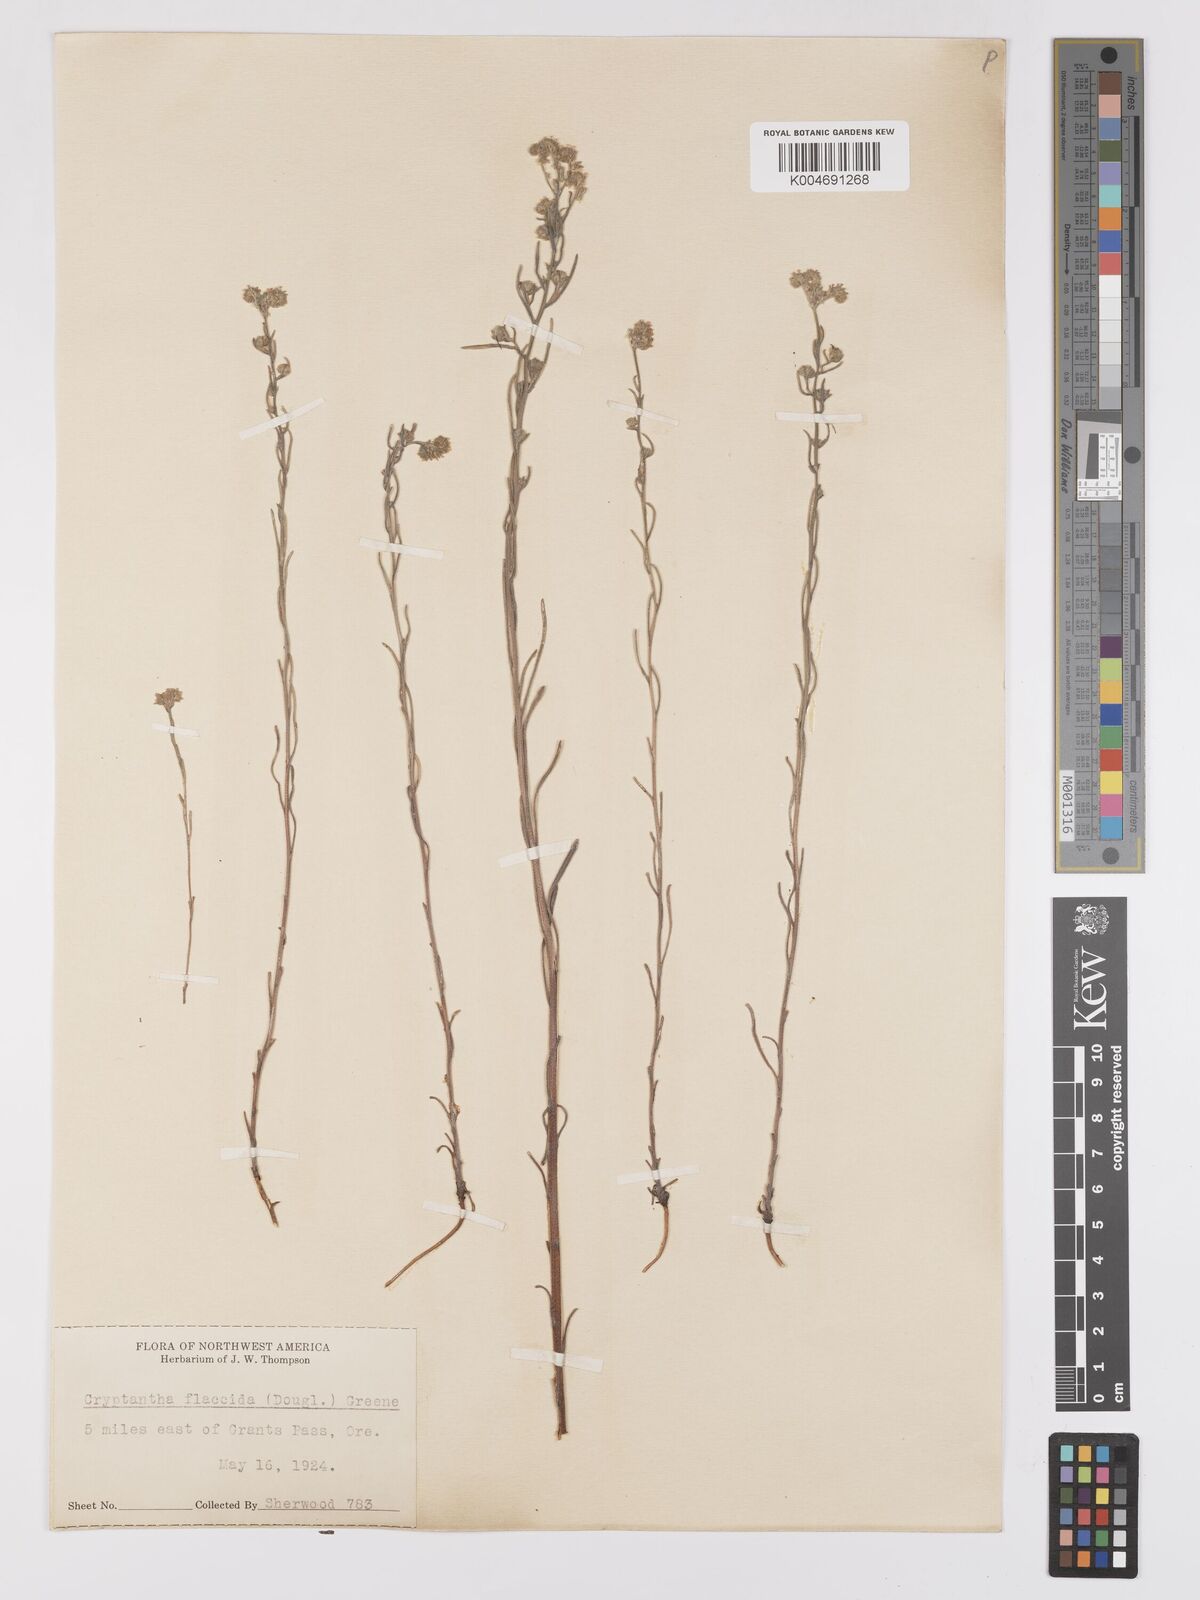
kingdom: Plantae
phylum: Tracheophyta
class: Magnoliopsida
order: Boraginales
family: Boraginaceae
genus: Cryptantha
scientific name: Cryptantha flaccida
